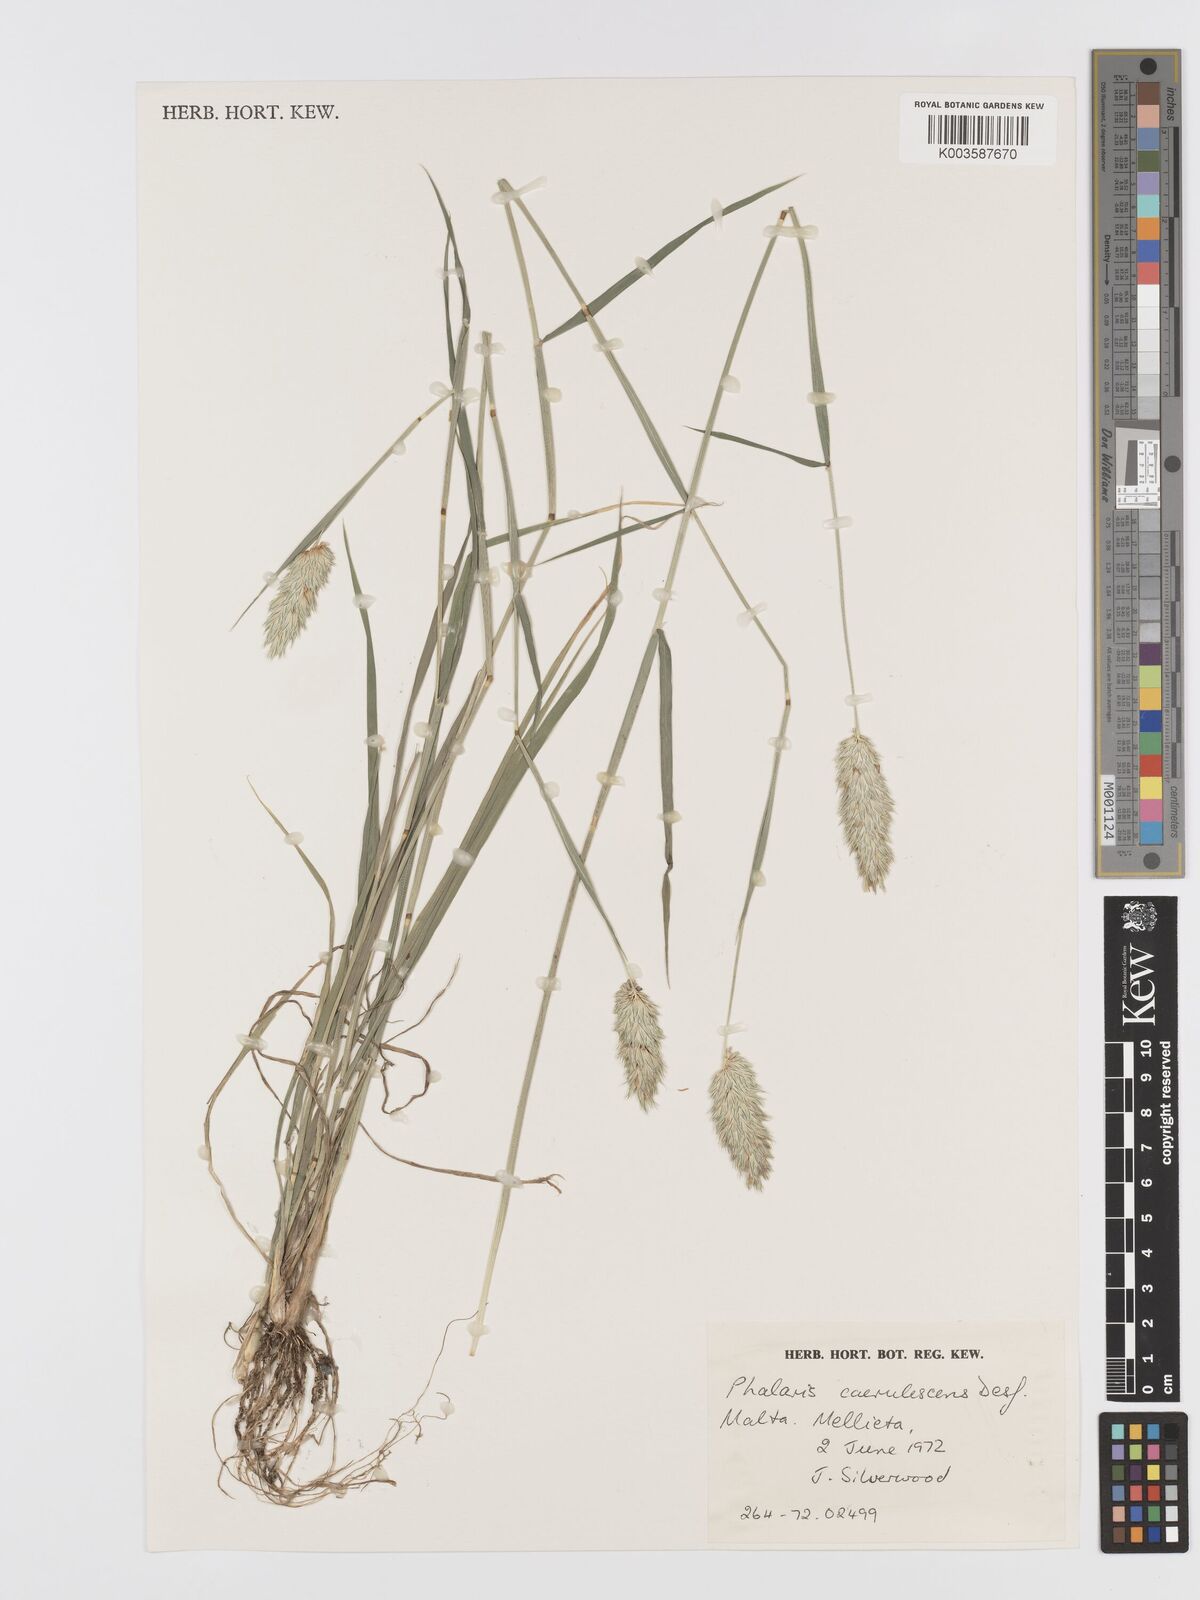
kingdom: Plantae
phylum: Tracheophyta
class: Liliopsida
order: Poales
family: Poaceae
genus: Phalaris
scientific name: Phalaris coerulescens
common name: Sunolgrass
